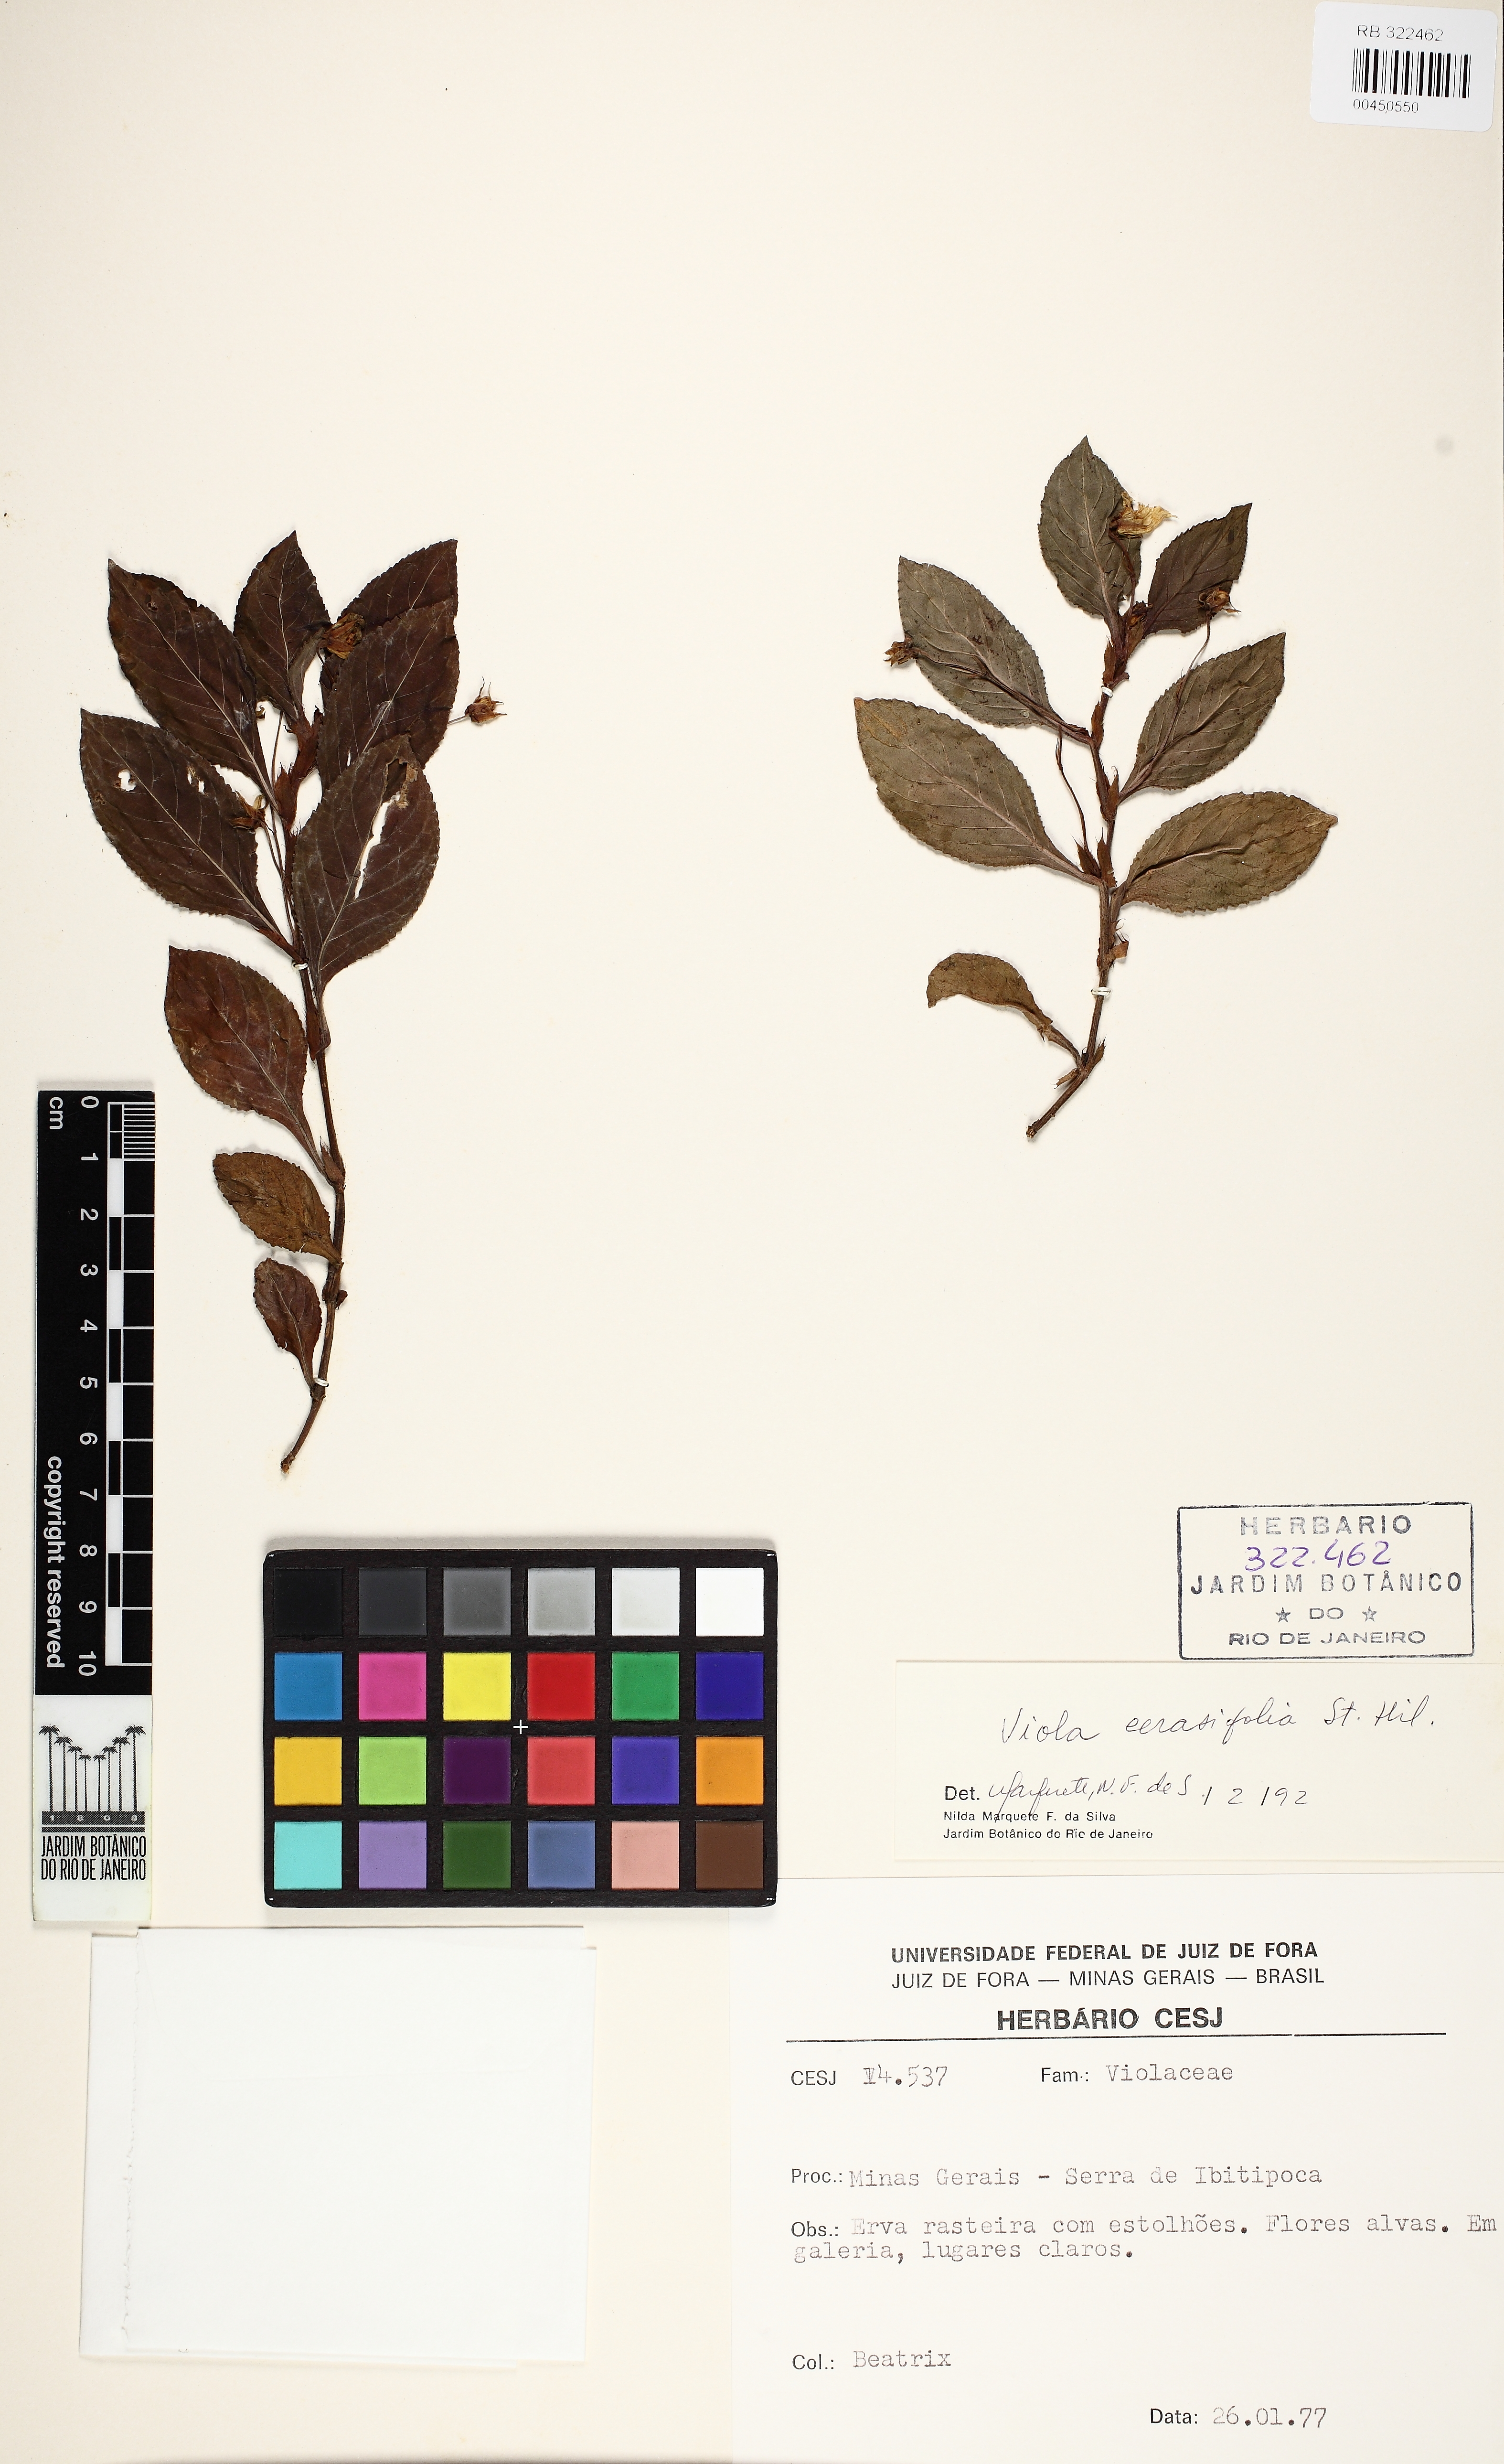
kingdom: Plantae
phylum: Tracheophyta
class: Magnoliopsida
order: Malpighiales
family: Violaceae
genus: Viola
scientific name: Viola cerasifolia
